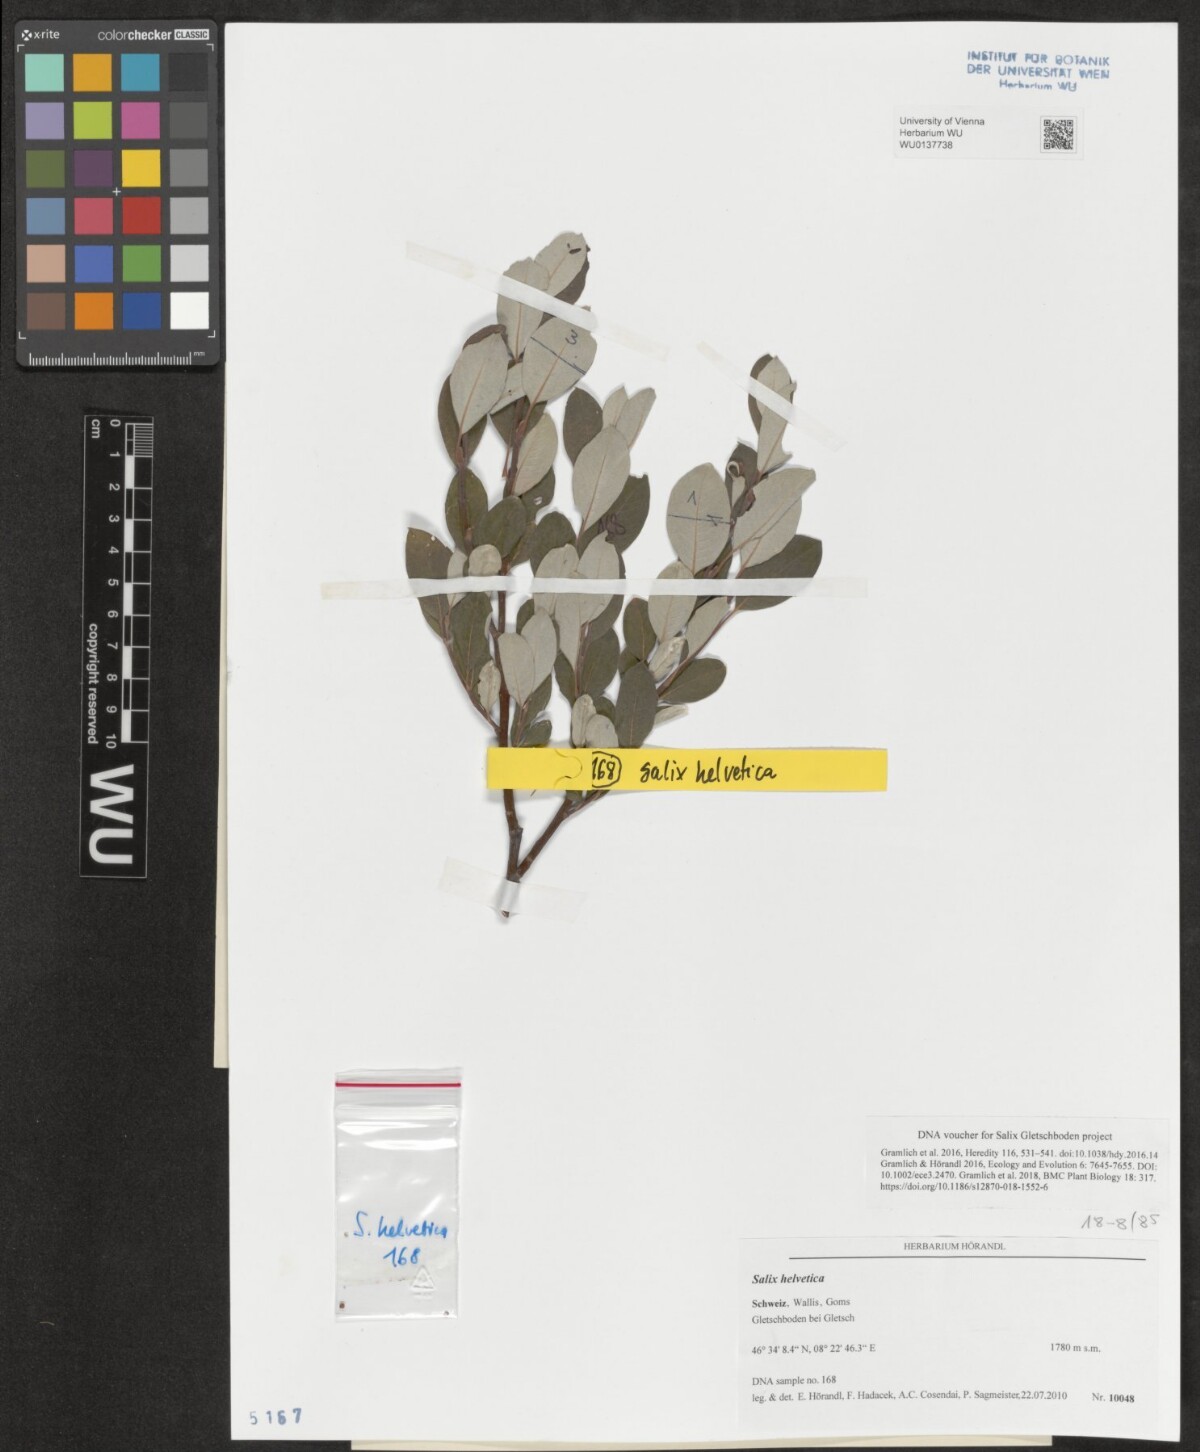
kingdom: Plantae
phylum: Tracheophyta
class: Magnoliopsida
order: Malpighiales
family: Salicaceae
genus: Salix
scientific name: Salix helvetica
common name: Swiss willow
